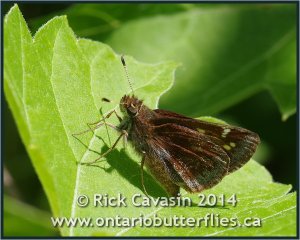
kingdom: Animalia
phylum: Arthropoda
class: Insecta
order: Lepidoptera
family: Hesperiidae
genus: Lon
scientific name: Lon hobomok
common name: Hobomok Skipper
